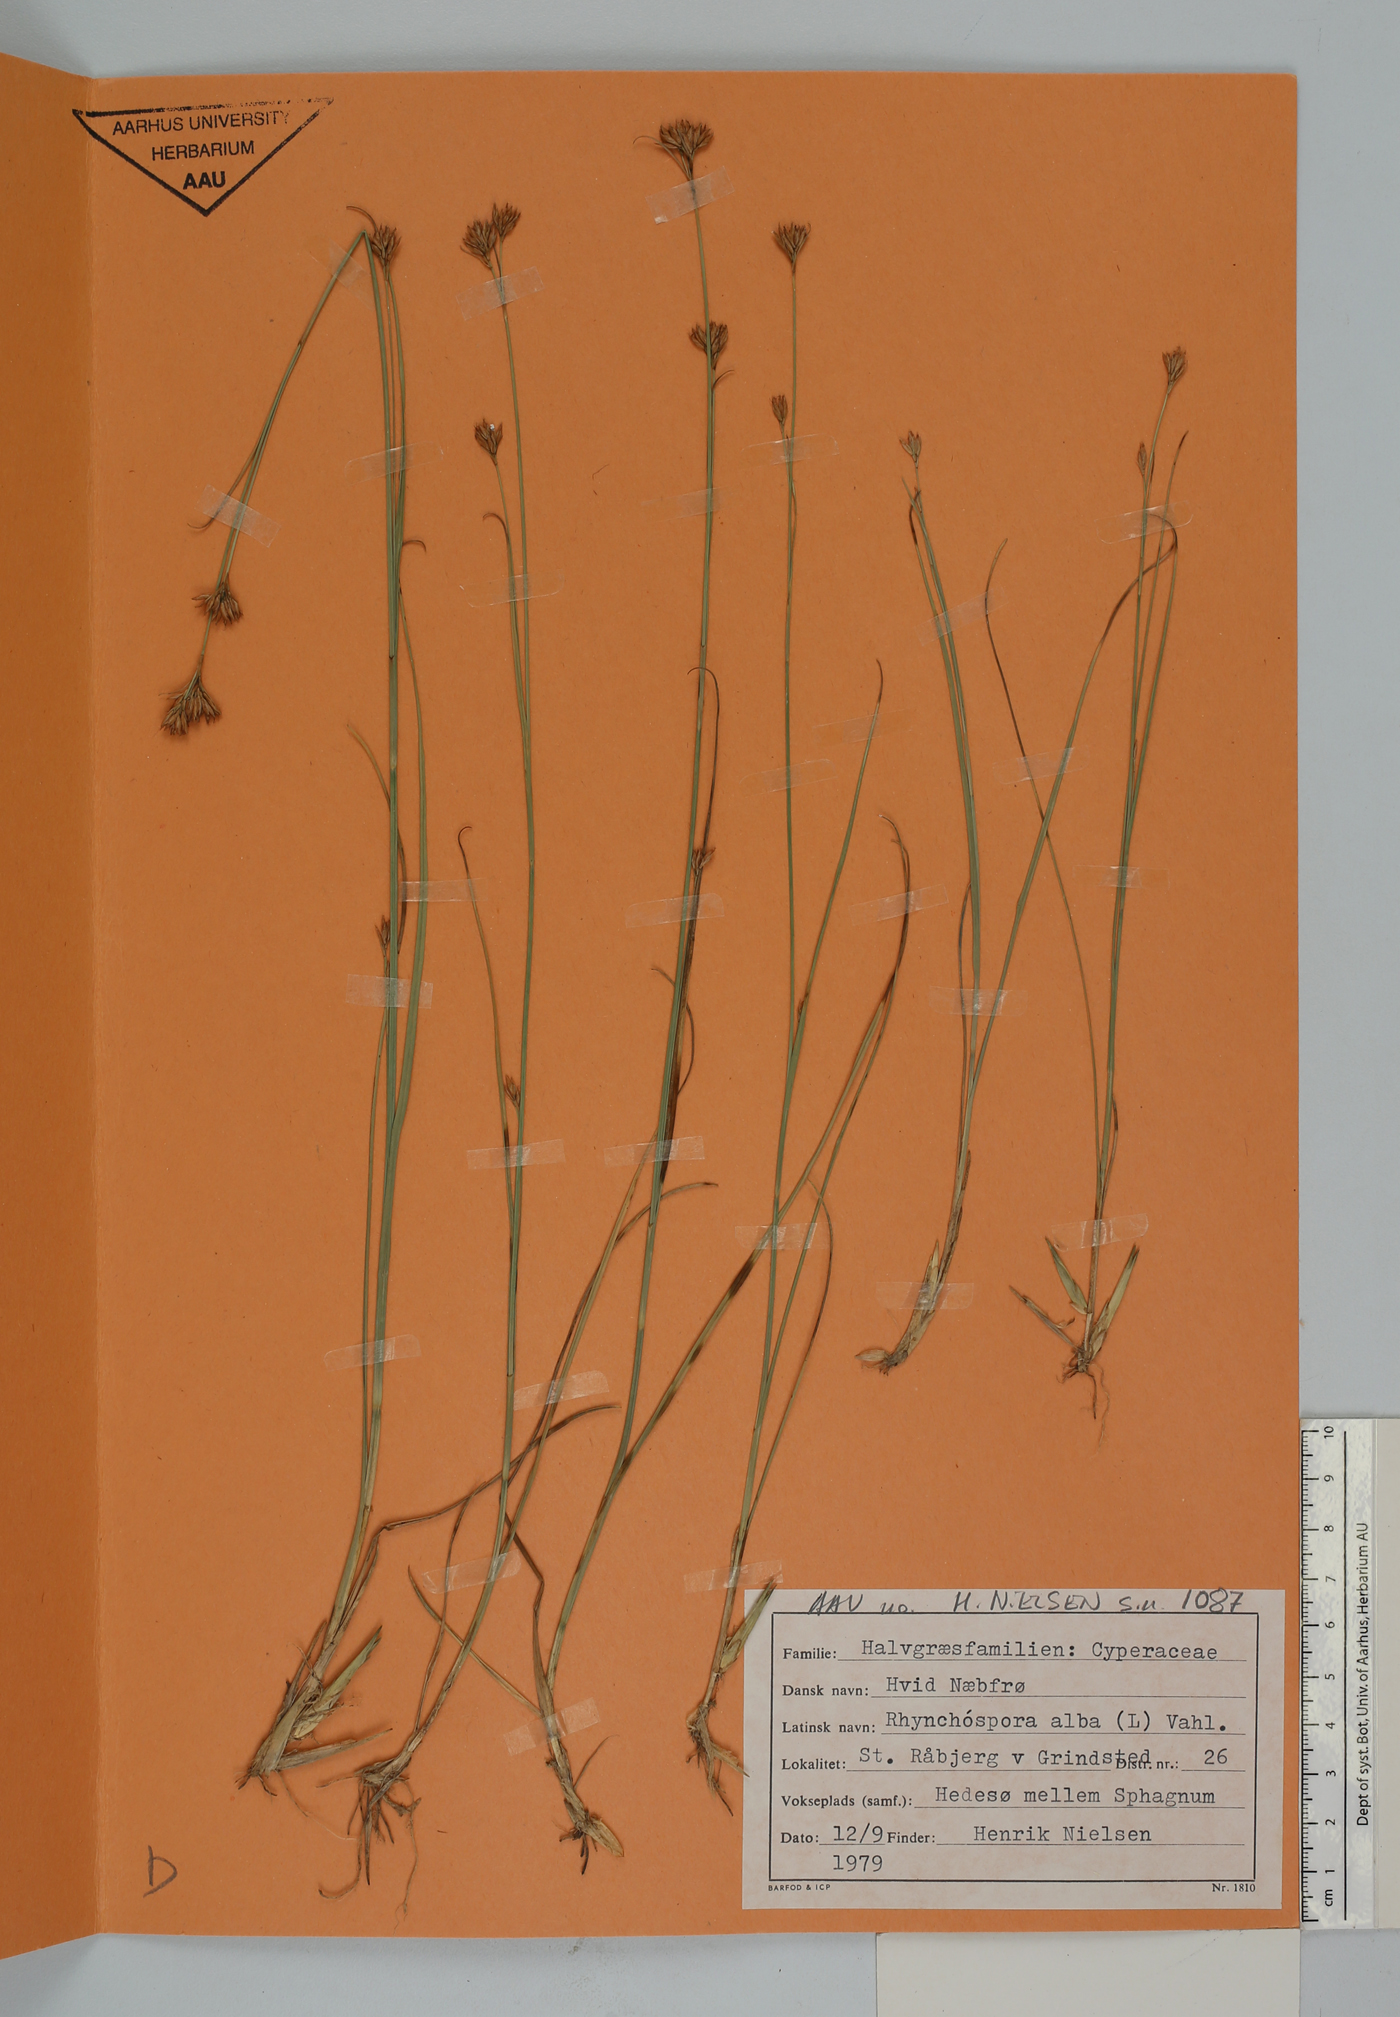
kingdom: Plantae
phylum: Tracheophyta
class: Liliopsida
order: Poales
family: Cyperaceae
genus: Rhynchospora
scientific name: Rhynchospora alba
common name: White beak-sedge
